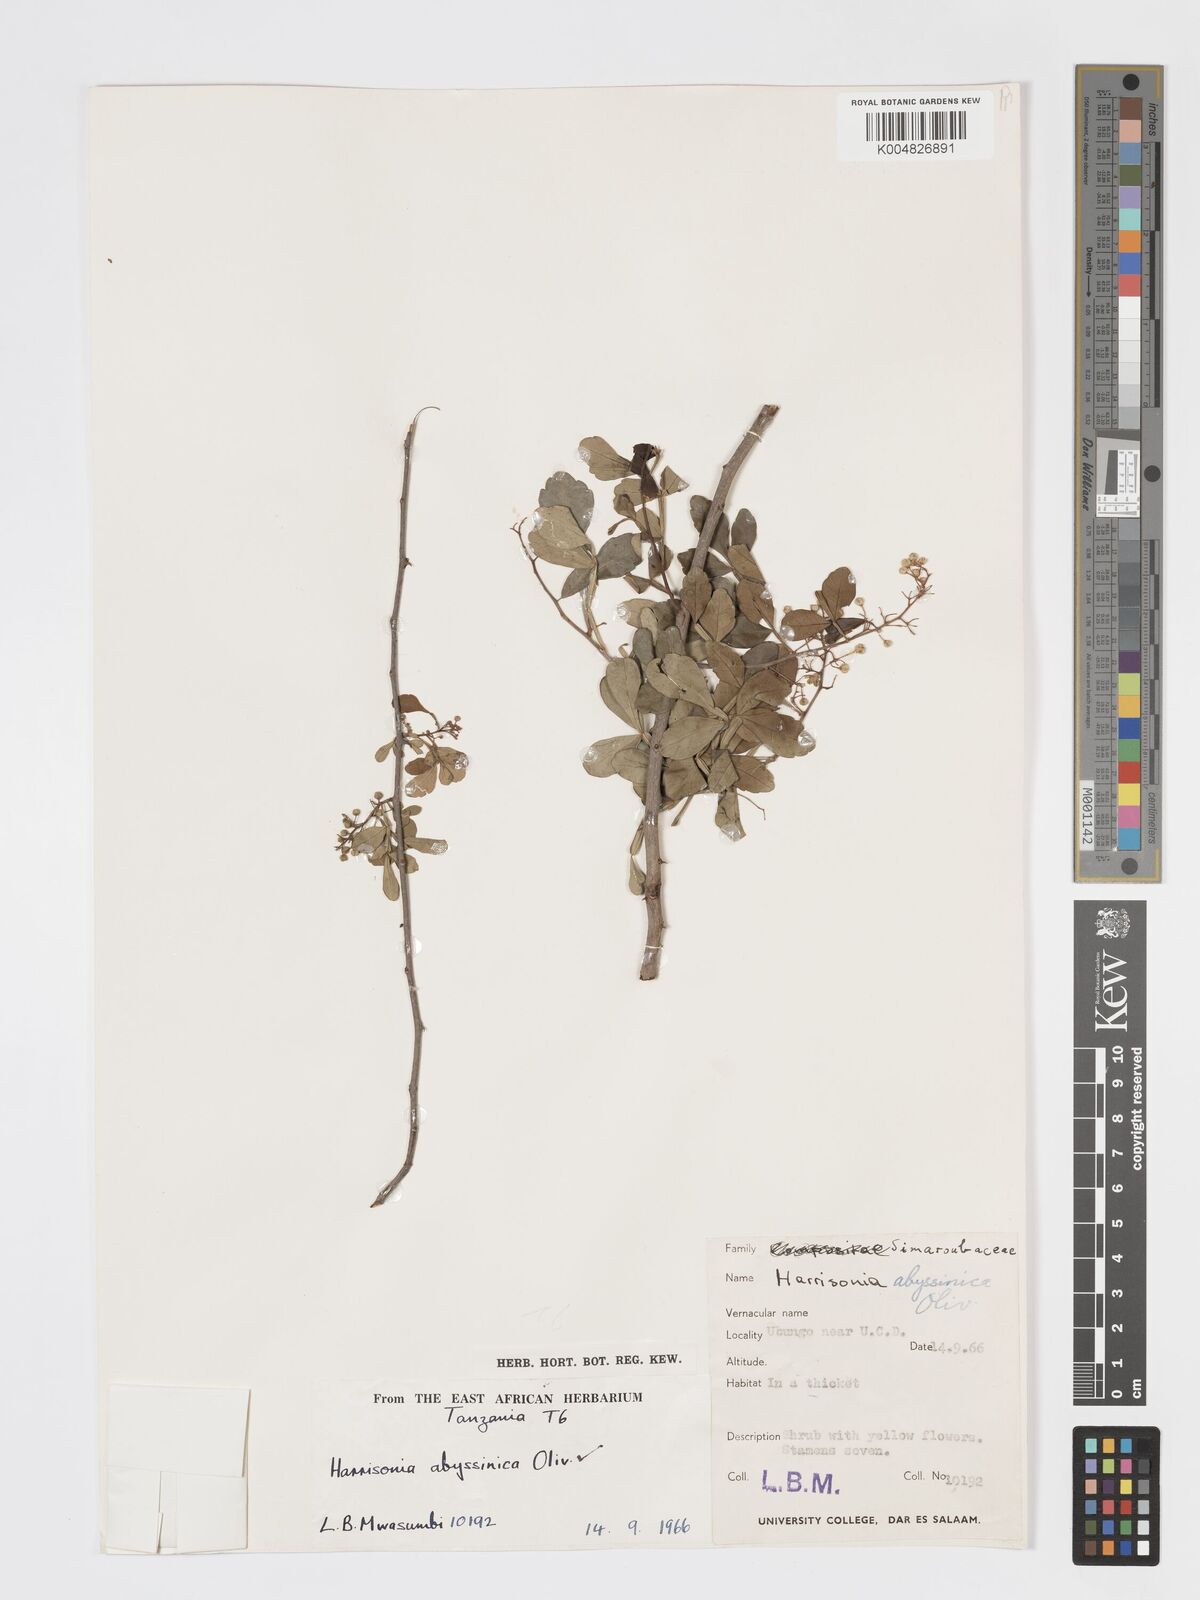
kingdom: Plantae
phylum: Tracheophyta
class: Magnoliopsida
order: Sapindales
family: Rutaceae
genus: Harrisonia
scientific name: Harrisonia abyssinica
